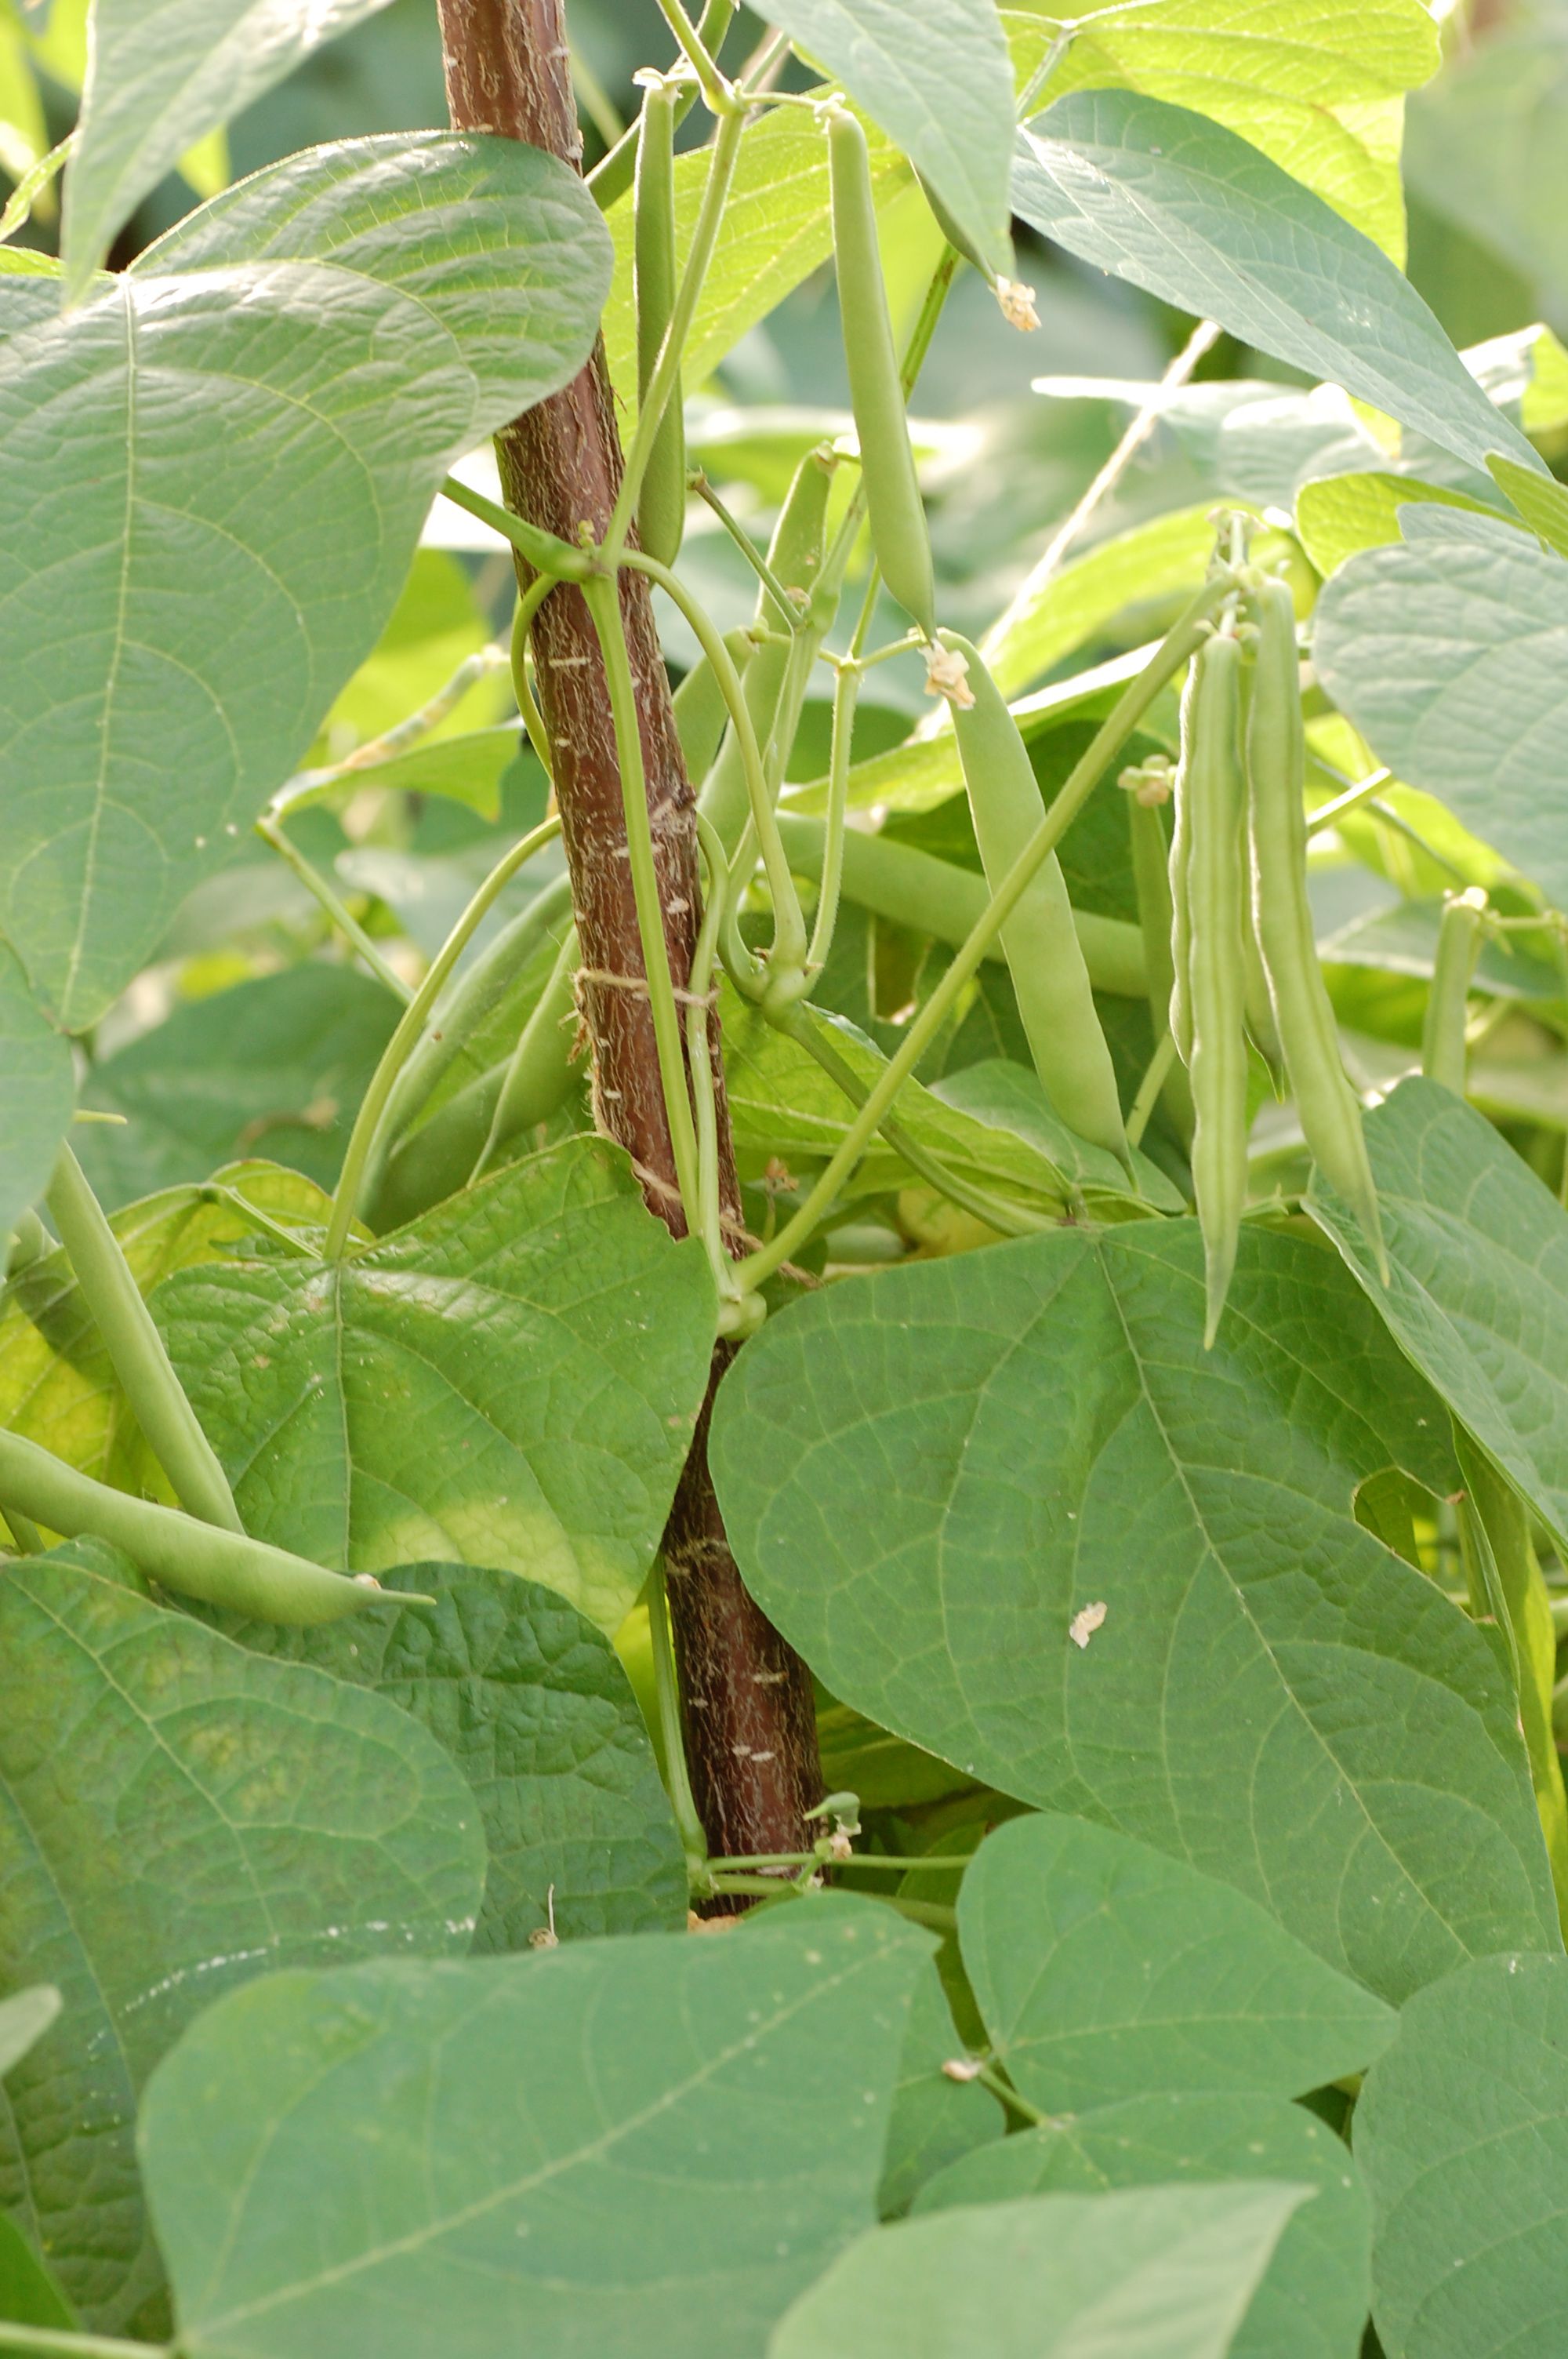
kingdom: Plantae
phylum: Tracheophyta
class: Magnoliopsida
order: Fabales
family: Fabaceae
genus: Phaseolus
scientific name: Phaseolus vulgaris
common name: Bean
